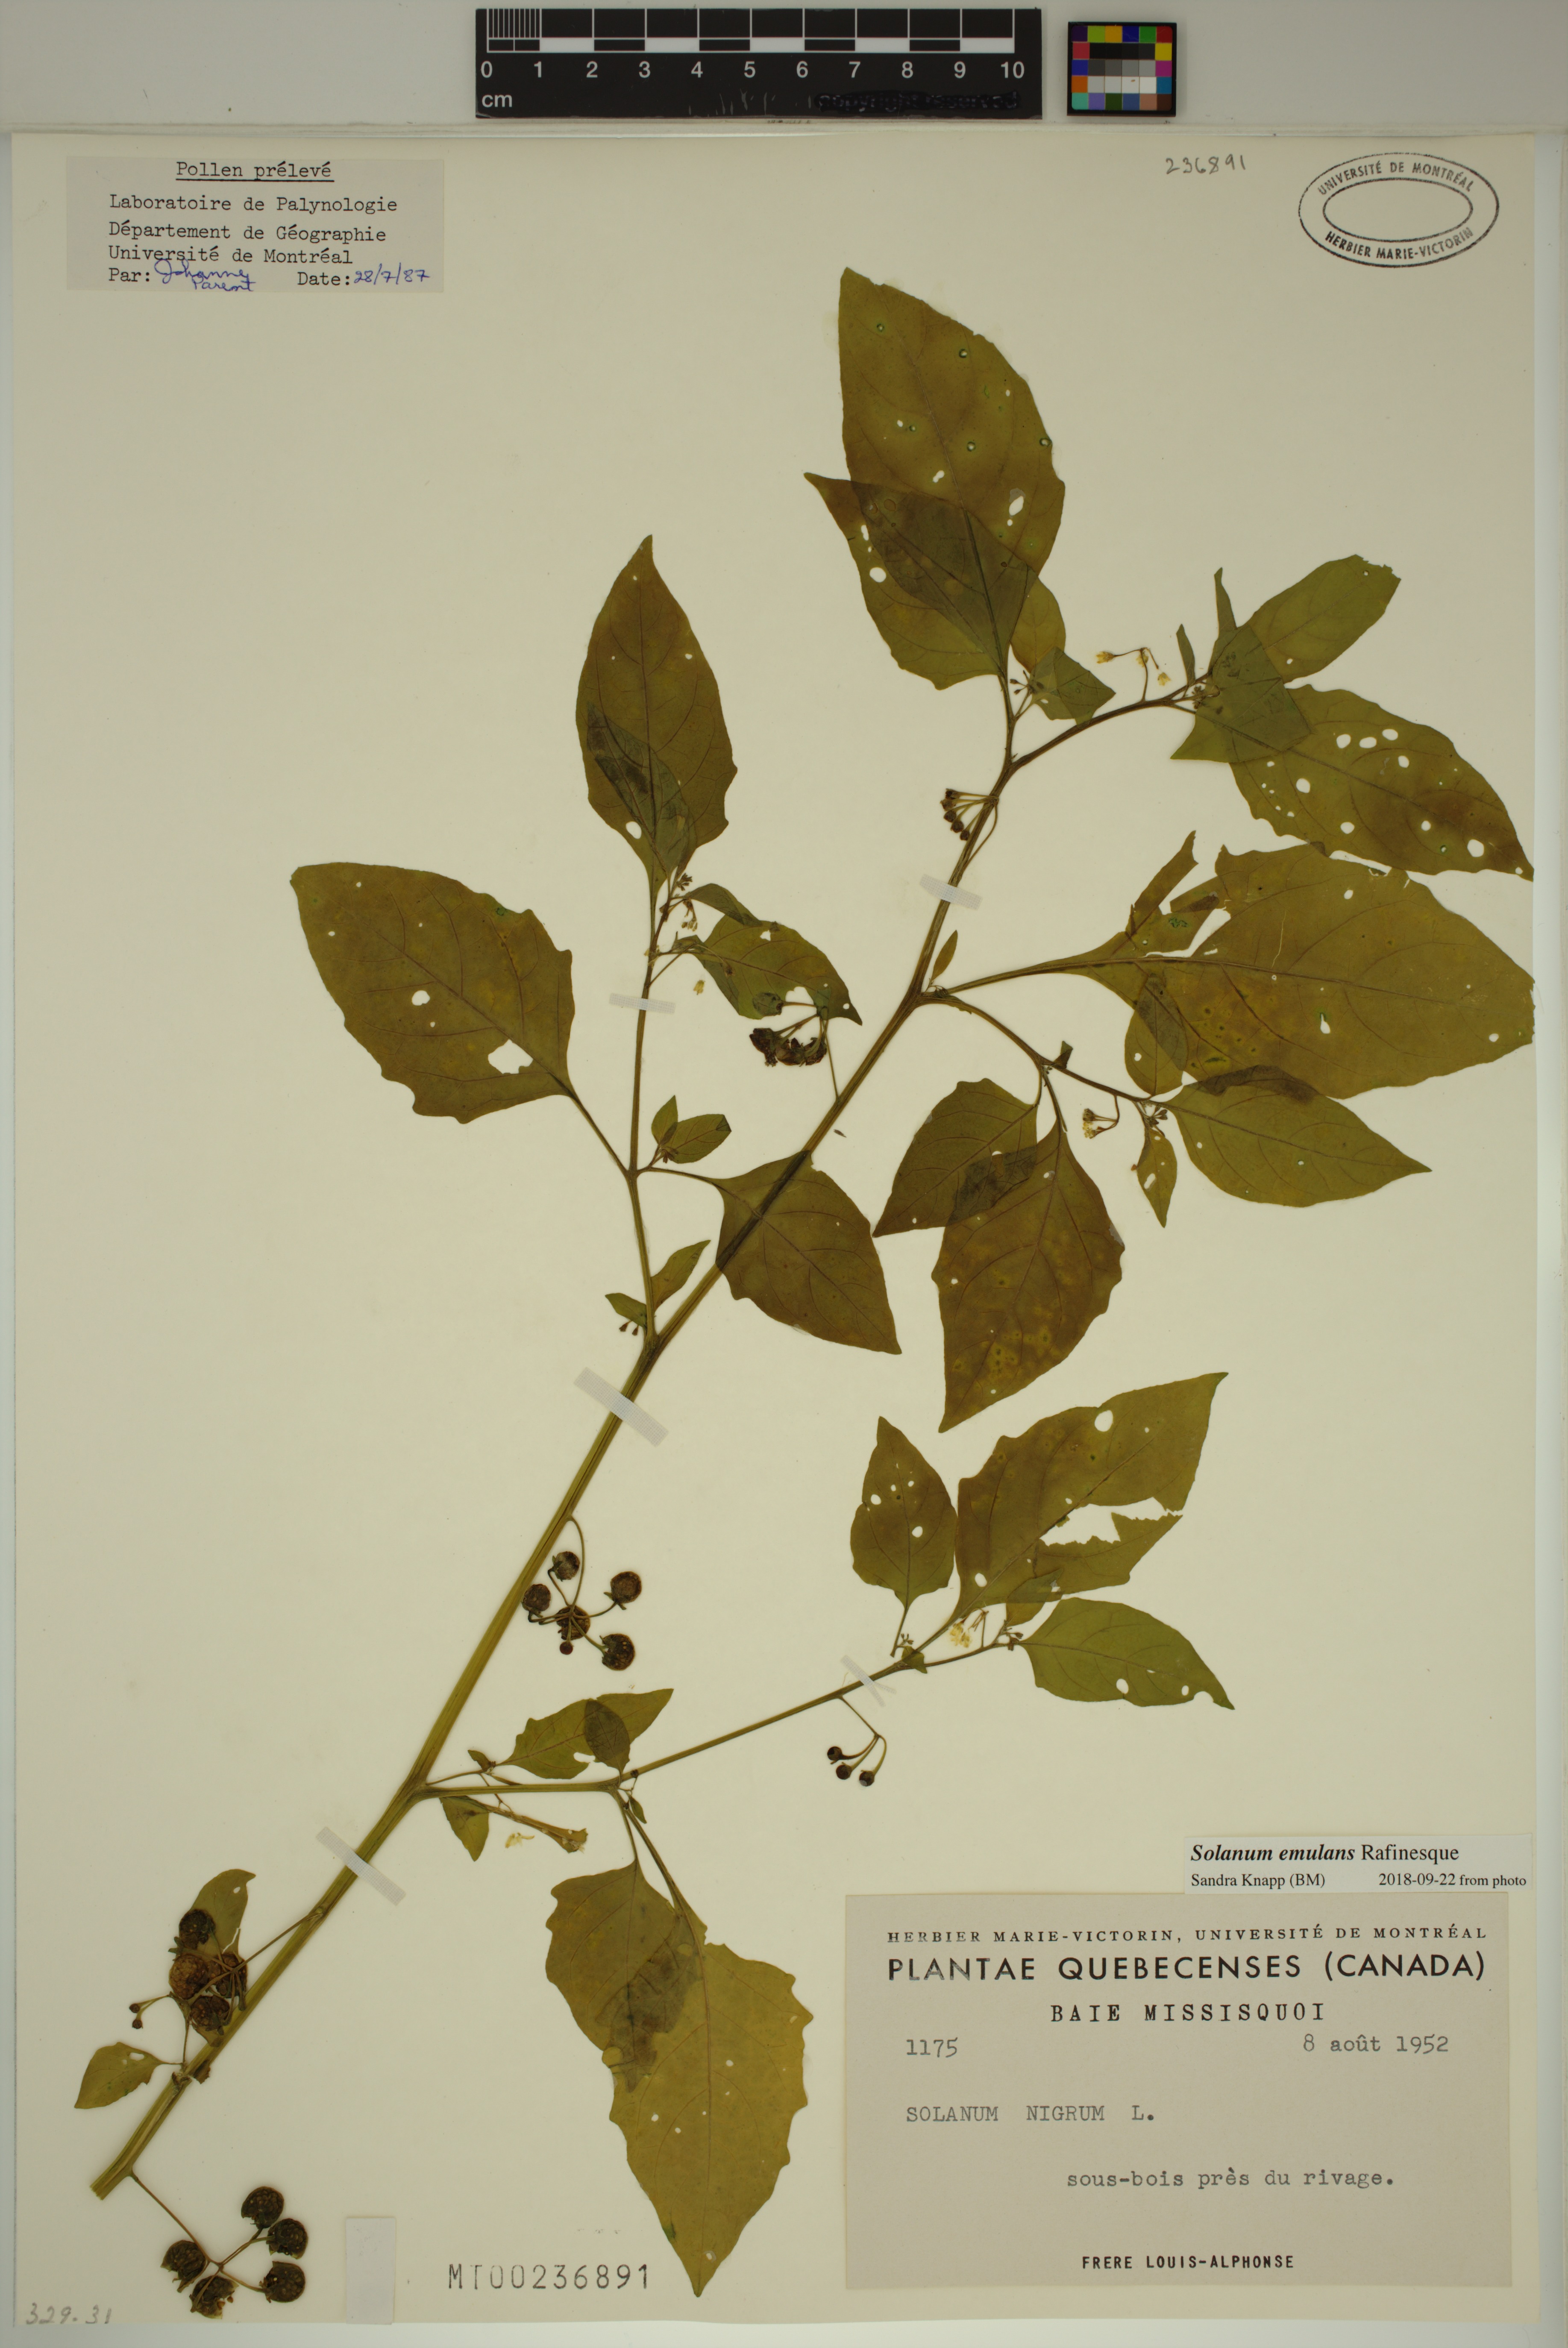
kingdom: Plantae
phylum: Tracheophyta
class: Magnoliopsida
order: Solanales
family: Solanaceae
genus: Solanum
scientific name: Solanum emulans
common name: Eastern black nightshade
